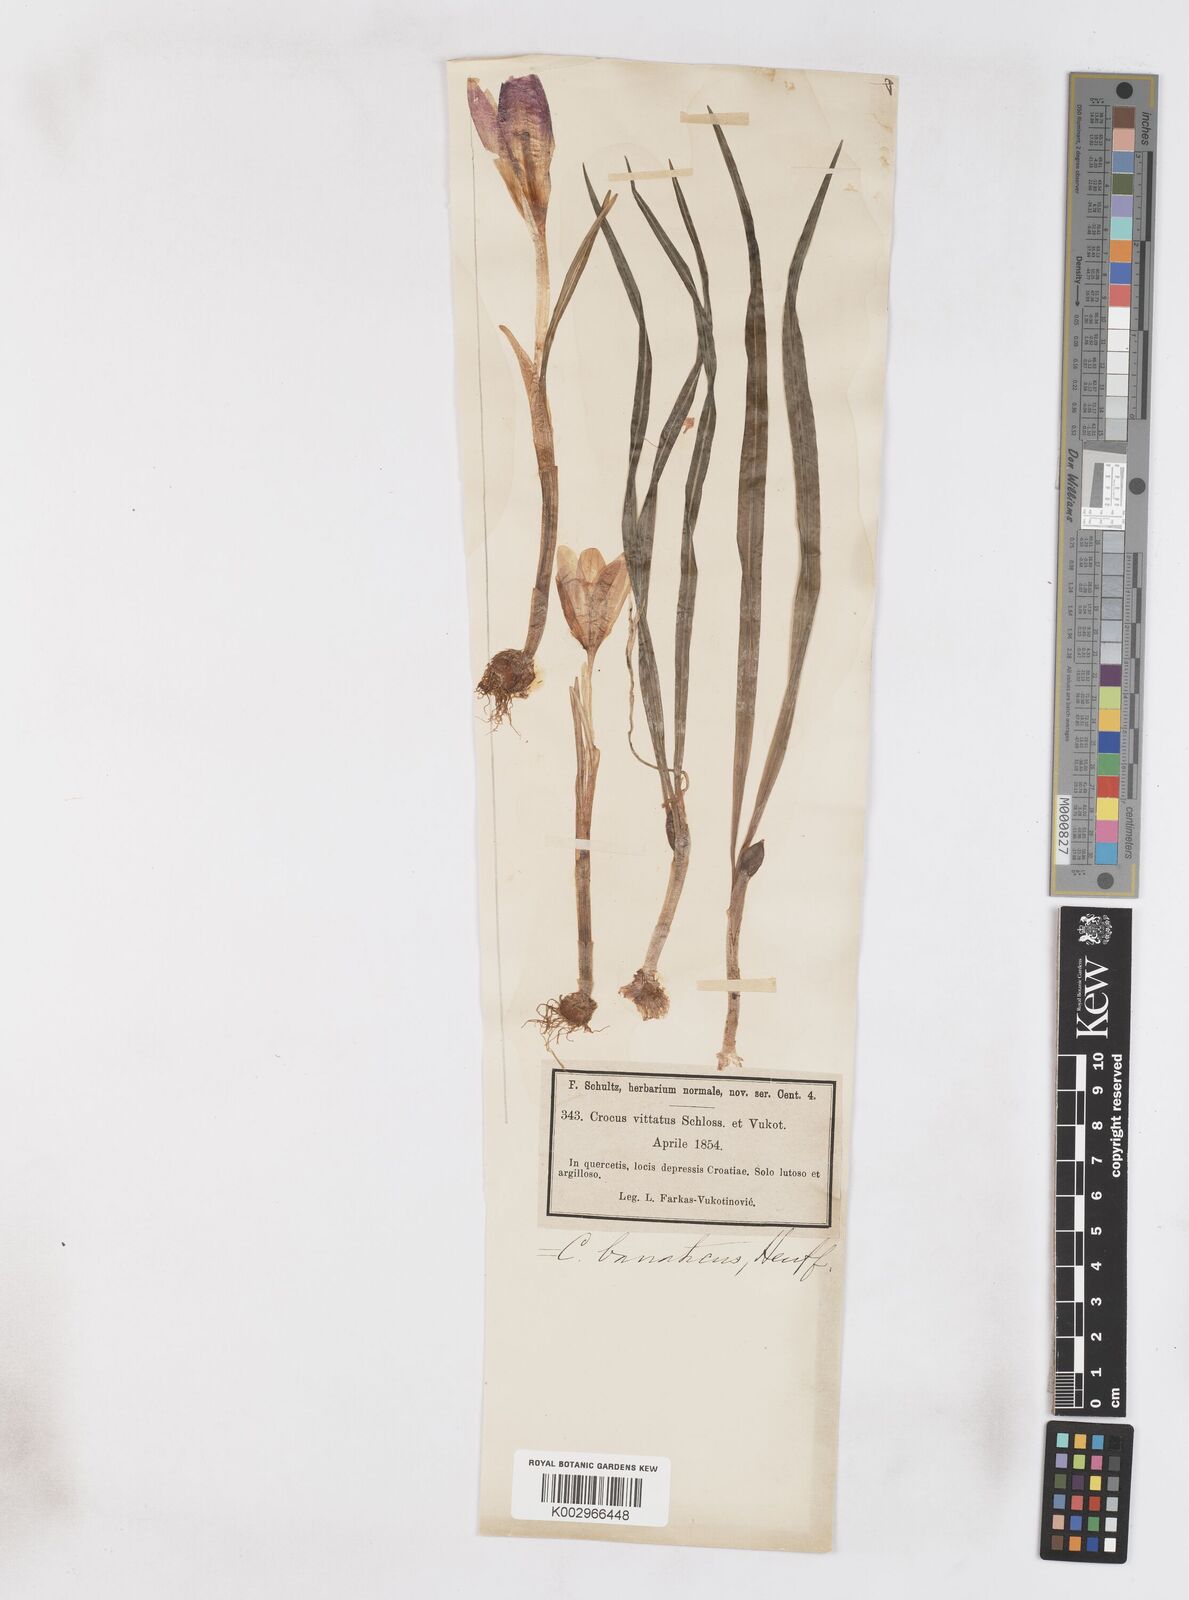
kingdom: Plantae
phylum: Tracheophyta
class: Liliopsida
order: Asparagales
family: Iridaceae
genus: Crocus
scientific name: Crocus vernus
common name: Spring crocus
